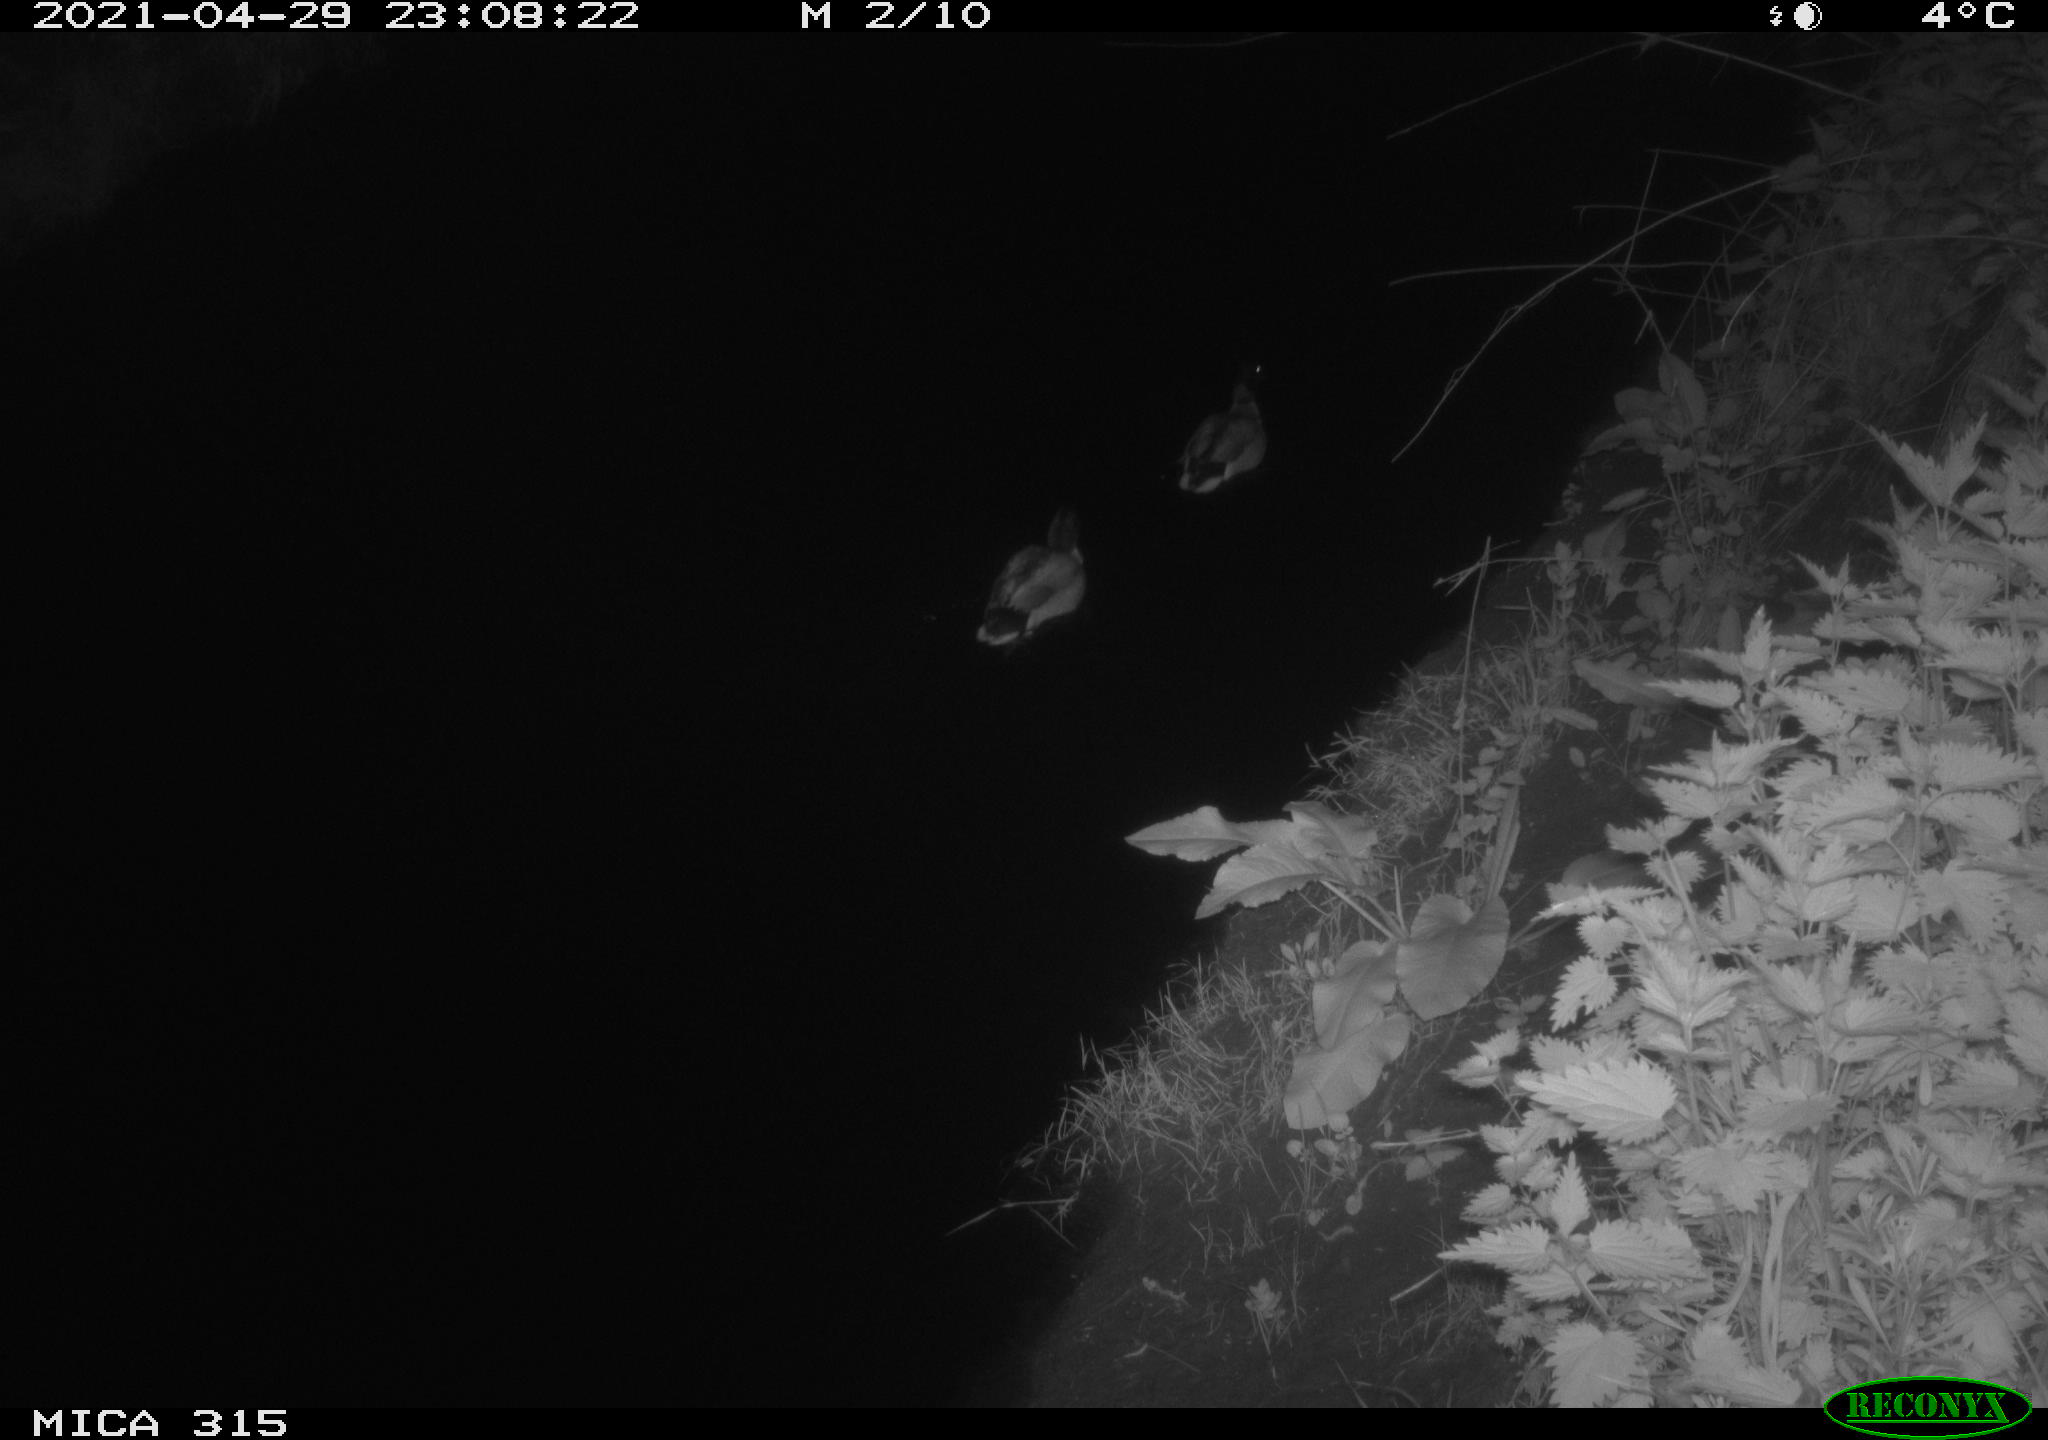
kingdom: Animalia
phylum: Chordata
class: Aves
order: Anseriformes
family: Anatidae
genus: Anas
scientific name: Anas
